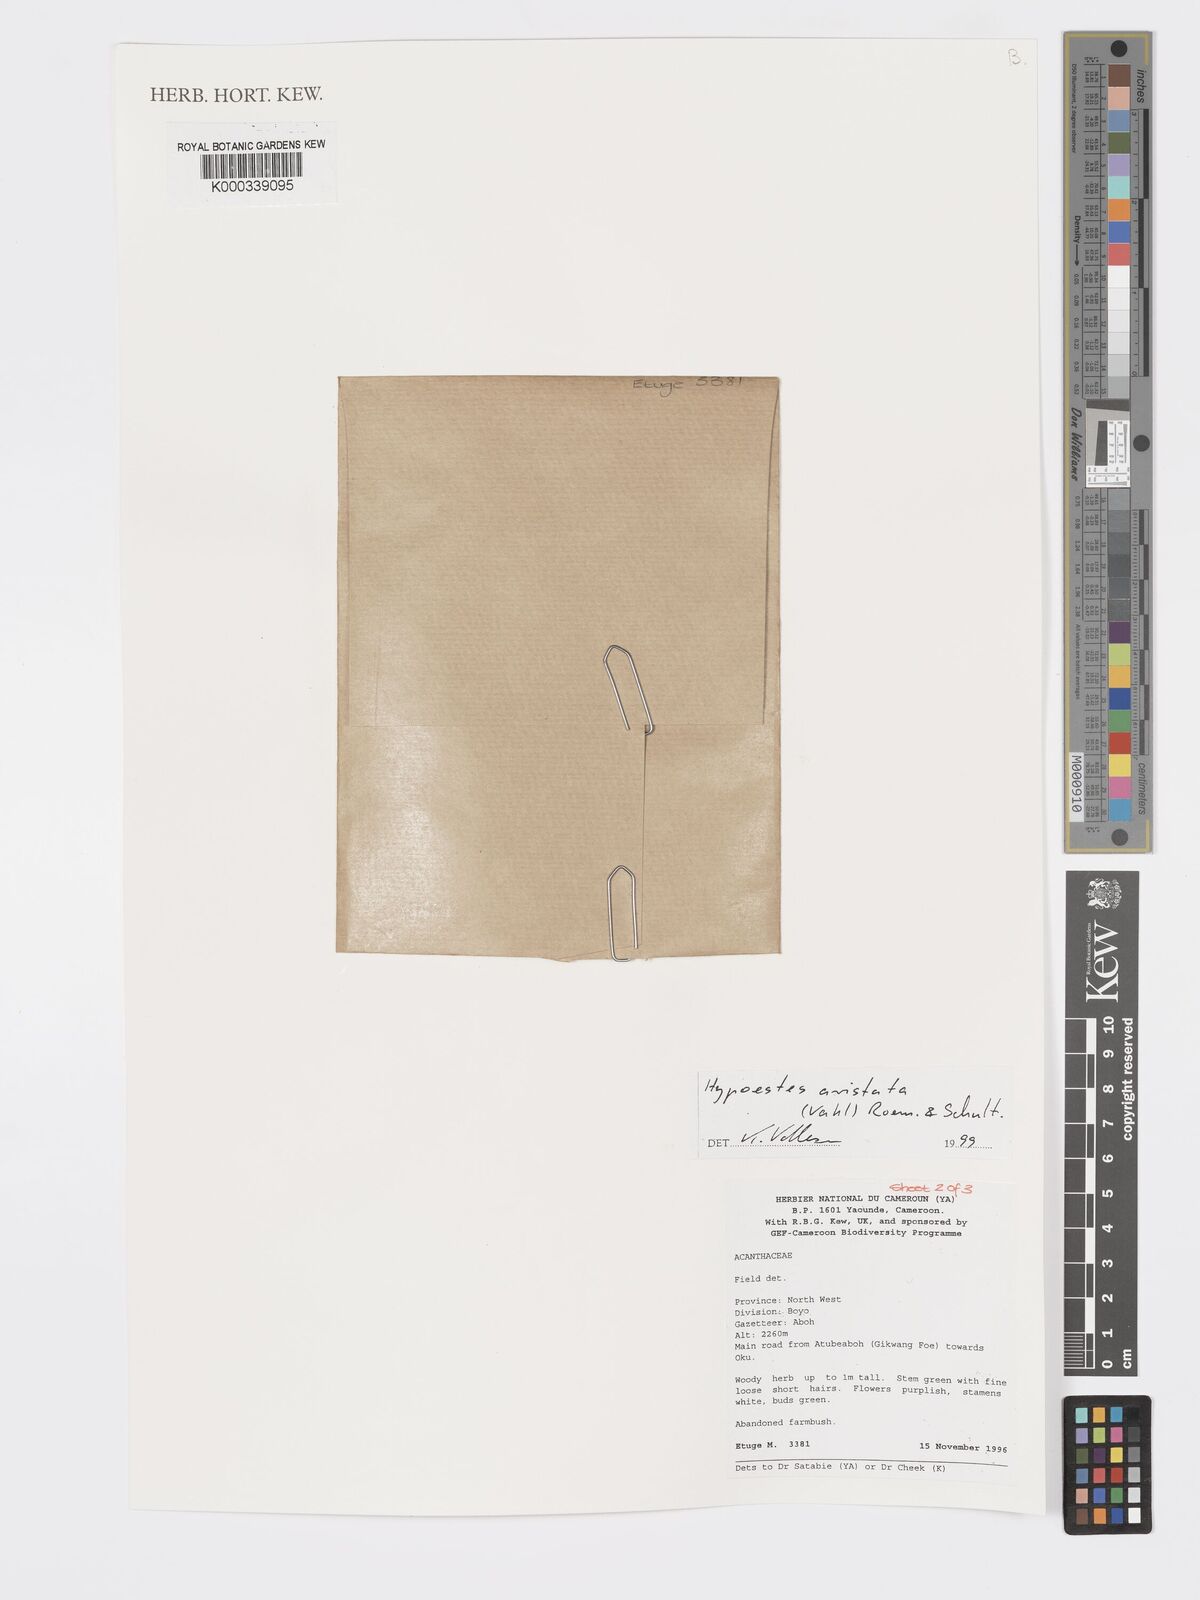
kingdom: Plantae
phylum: Tracheophyta
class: Magnoliopsida
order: Lamiales
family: Acanthaceae
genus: Hypoestes
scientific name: Hypoestes aristata
